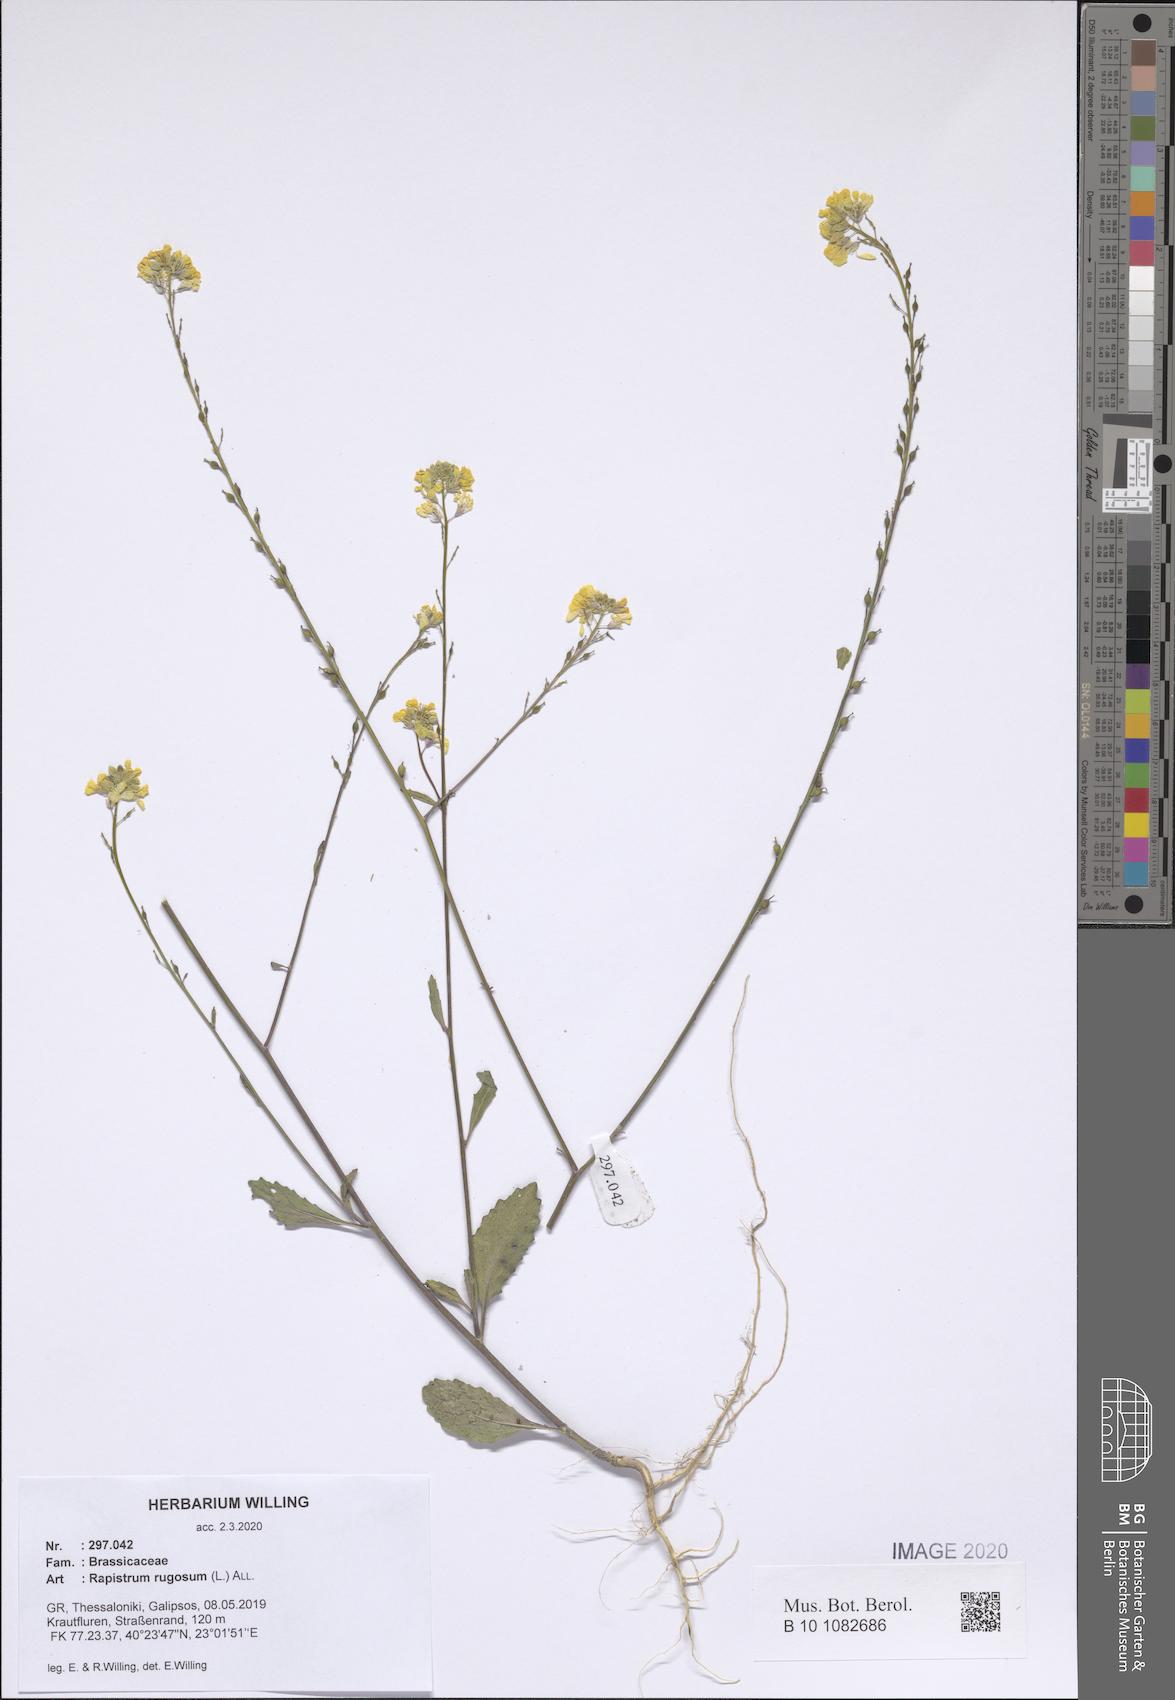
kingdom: Plantae
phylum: Tracheophyta
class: Magnoliopsida
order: Brassicales
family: Brassicaceae
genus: Rapistrum
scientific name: Rapistrum rugosum
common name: Annual bastardcabbage
